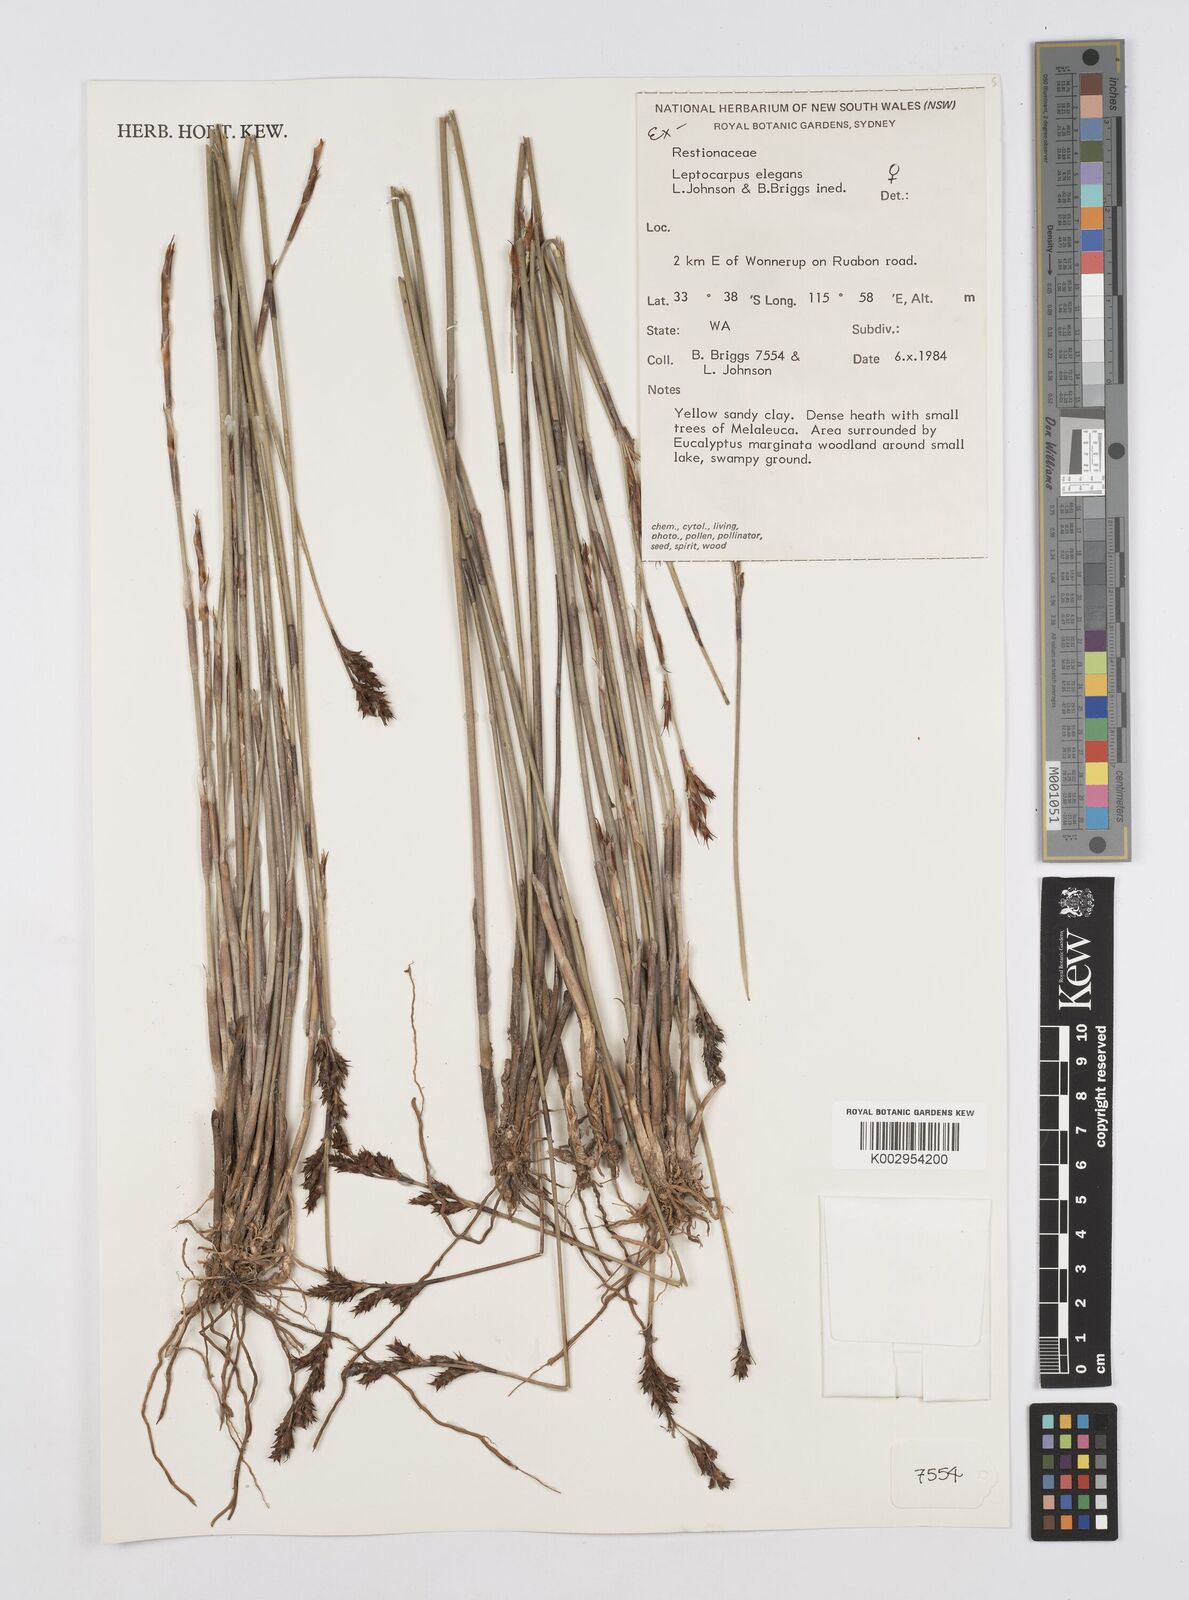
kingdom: Plantae
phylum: Tracheophyta
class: Liliopsida
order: Poales
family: Restionaceae
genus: Leptocarpus
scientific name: Leptocarpus trisepalus
